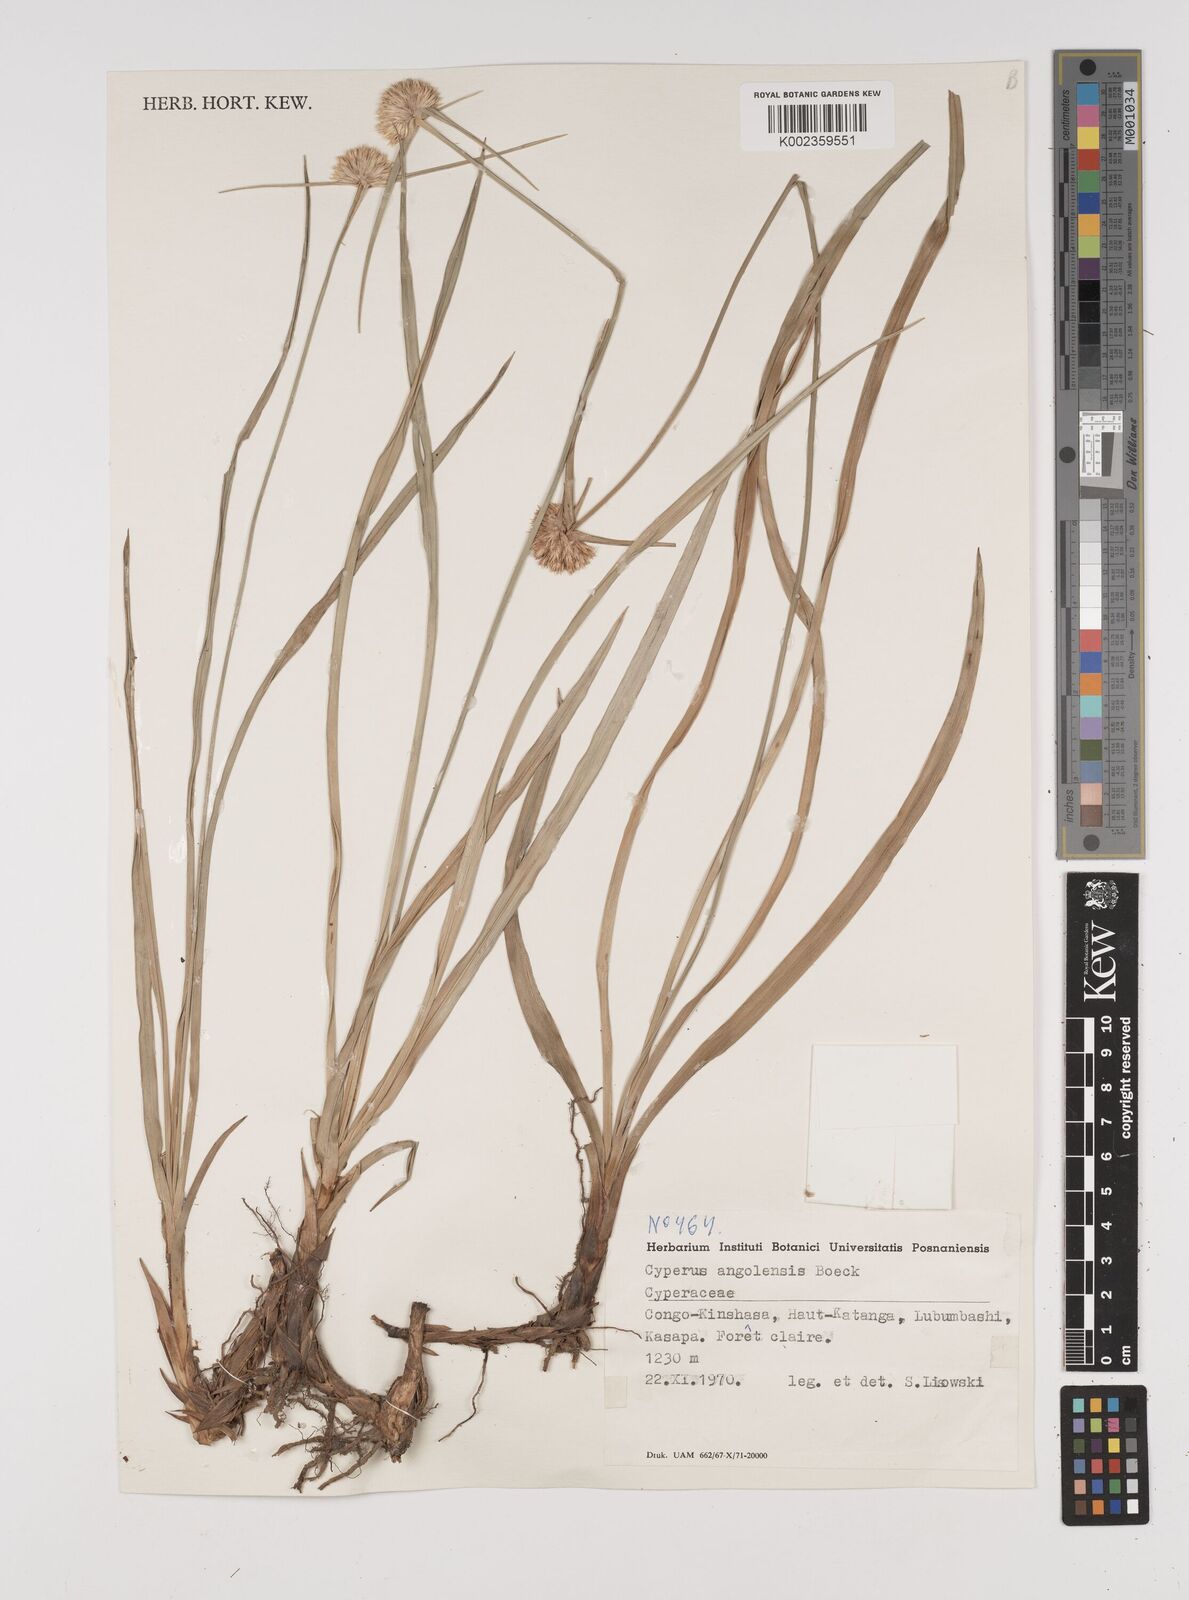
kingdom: Plantae
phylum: Tracheophyta
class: Liliopsida
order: Poales
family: Cyperaceae
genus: Cyperus
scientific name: Cyperus angolensis
